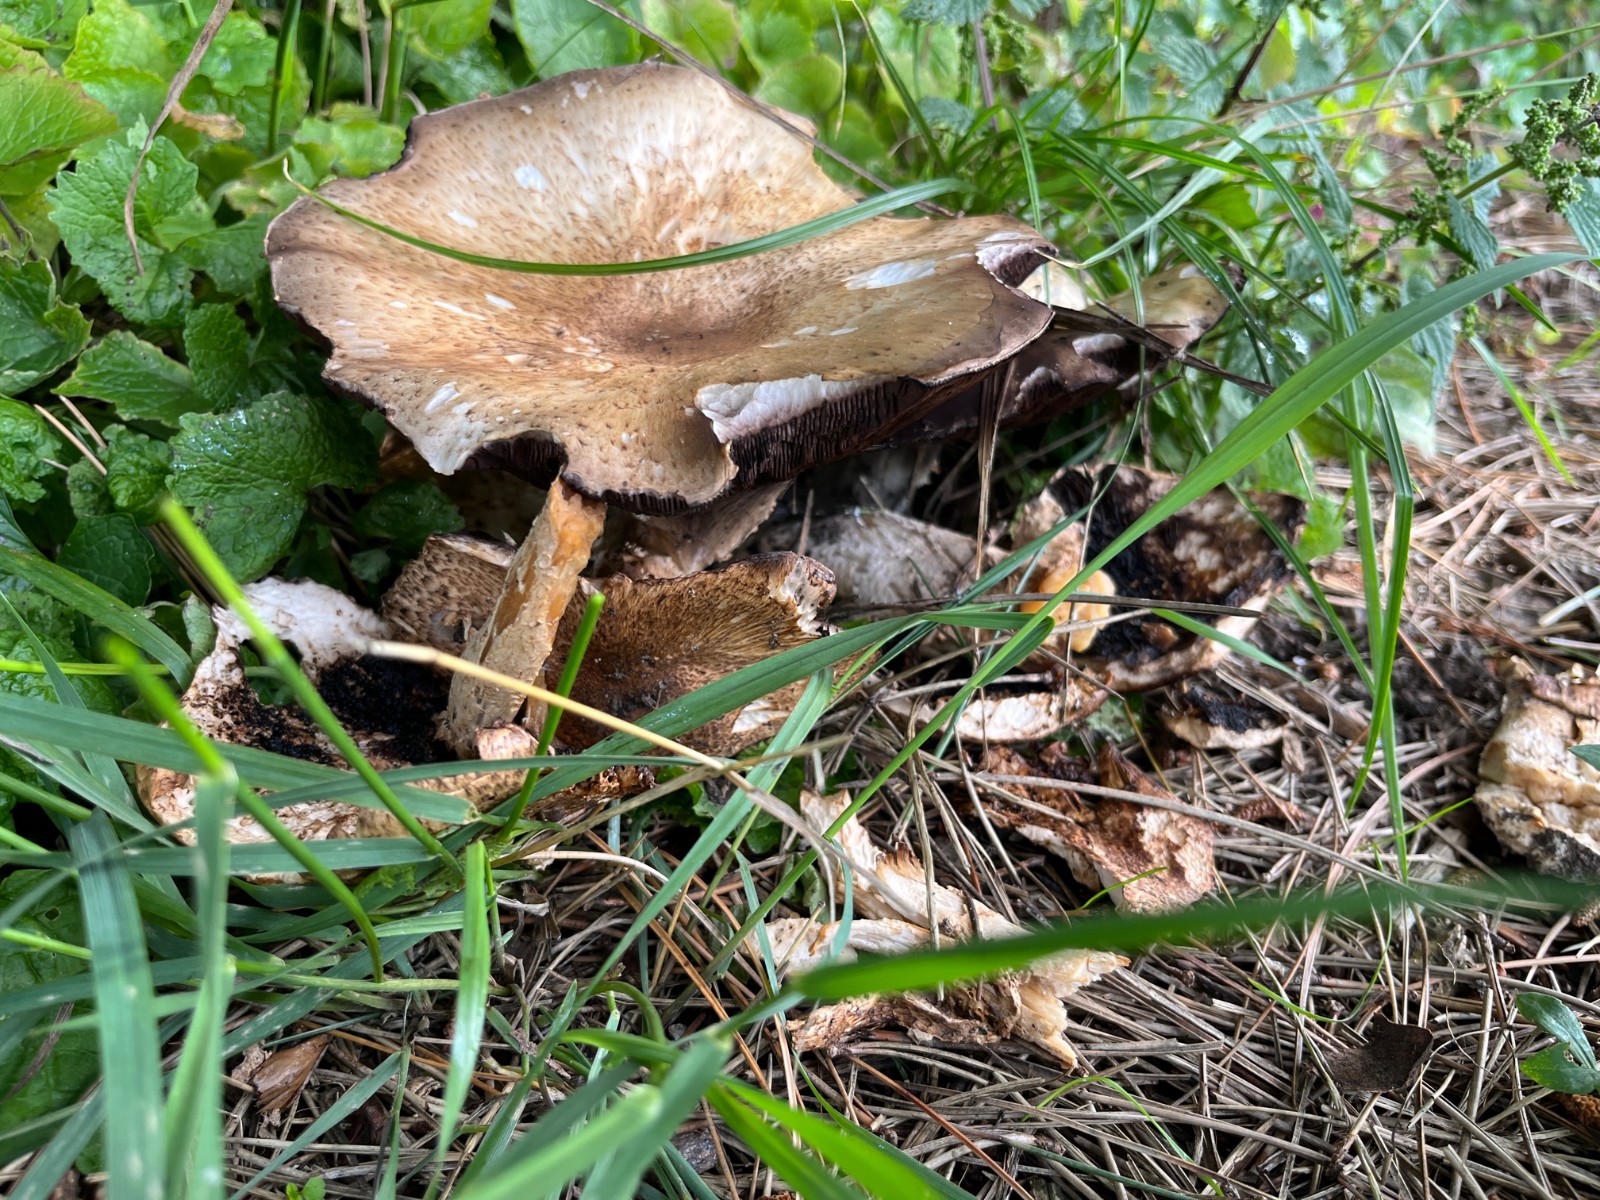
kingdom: Fungi
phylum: Basidiomycota
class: Agaricomycetes
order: Agaricales
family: Agaricaceae
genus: Agaricus
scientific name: Agaricus augustus
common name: prægtig champignon
